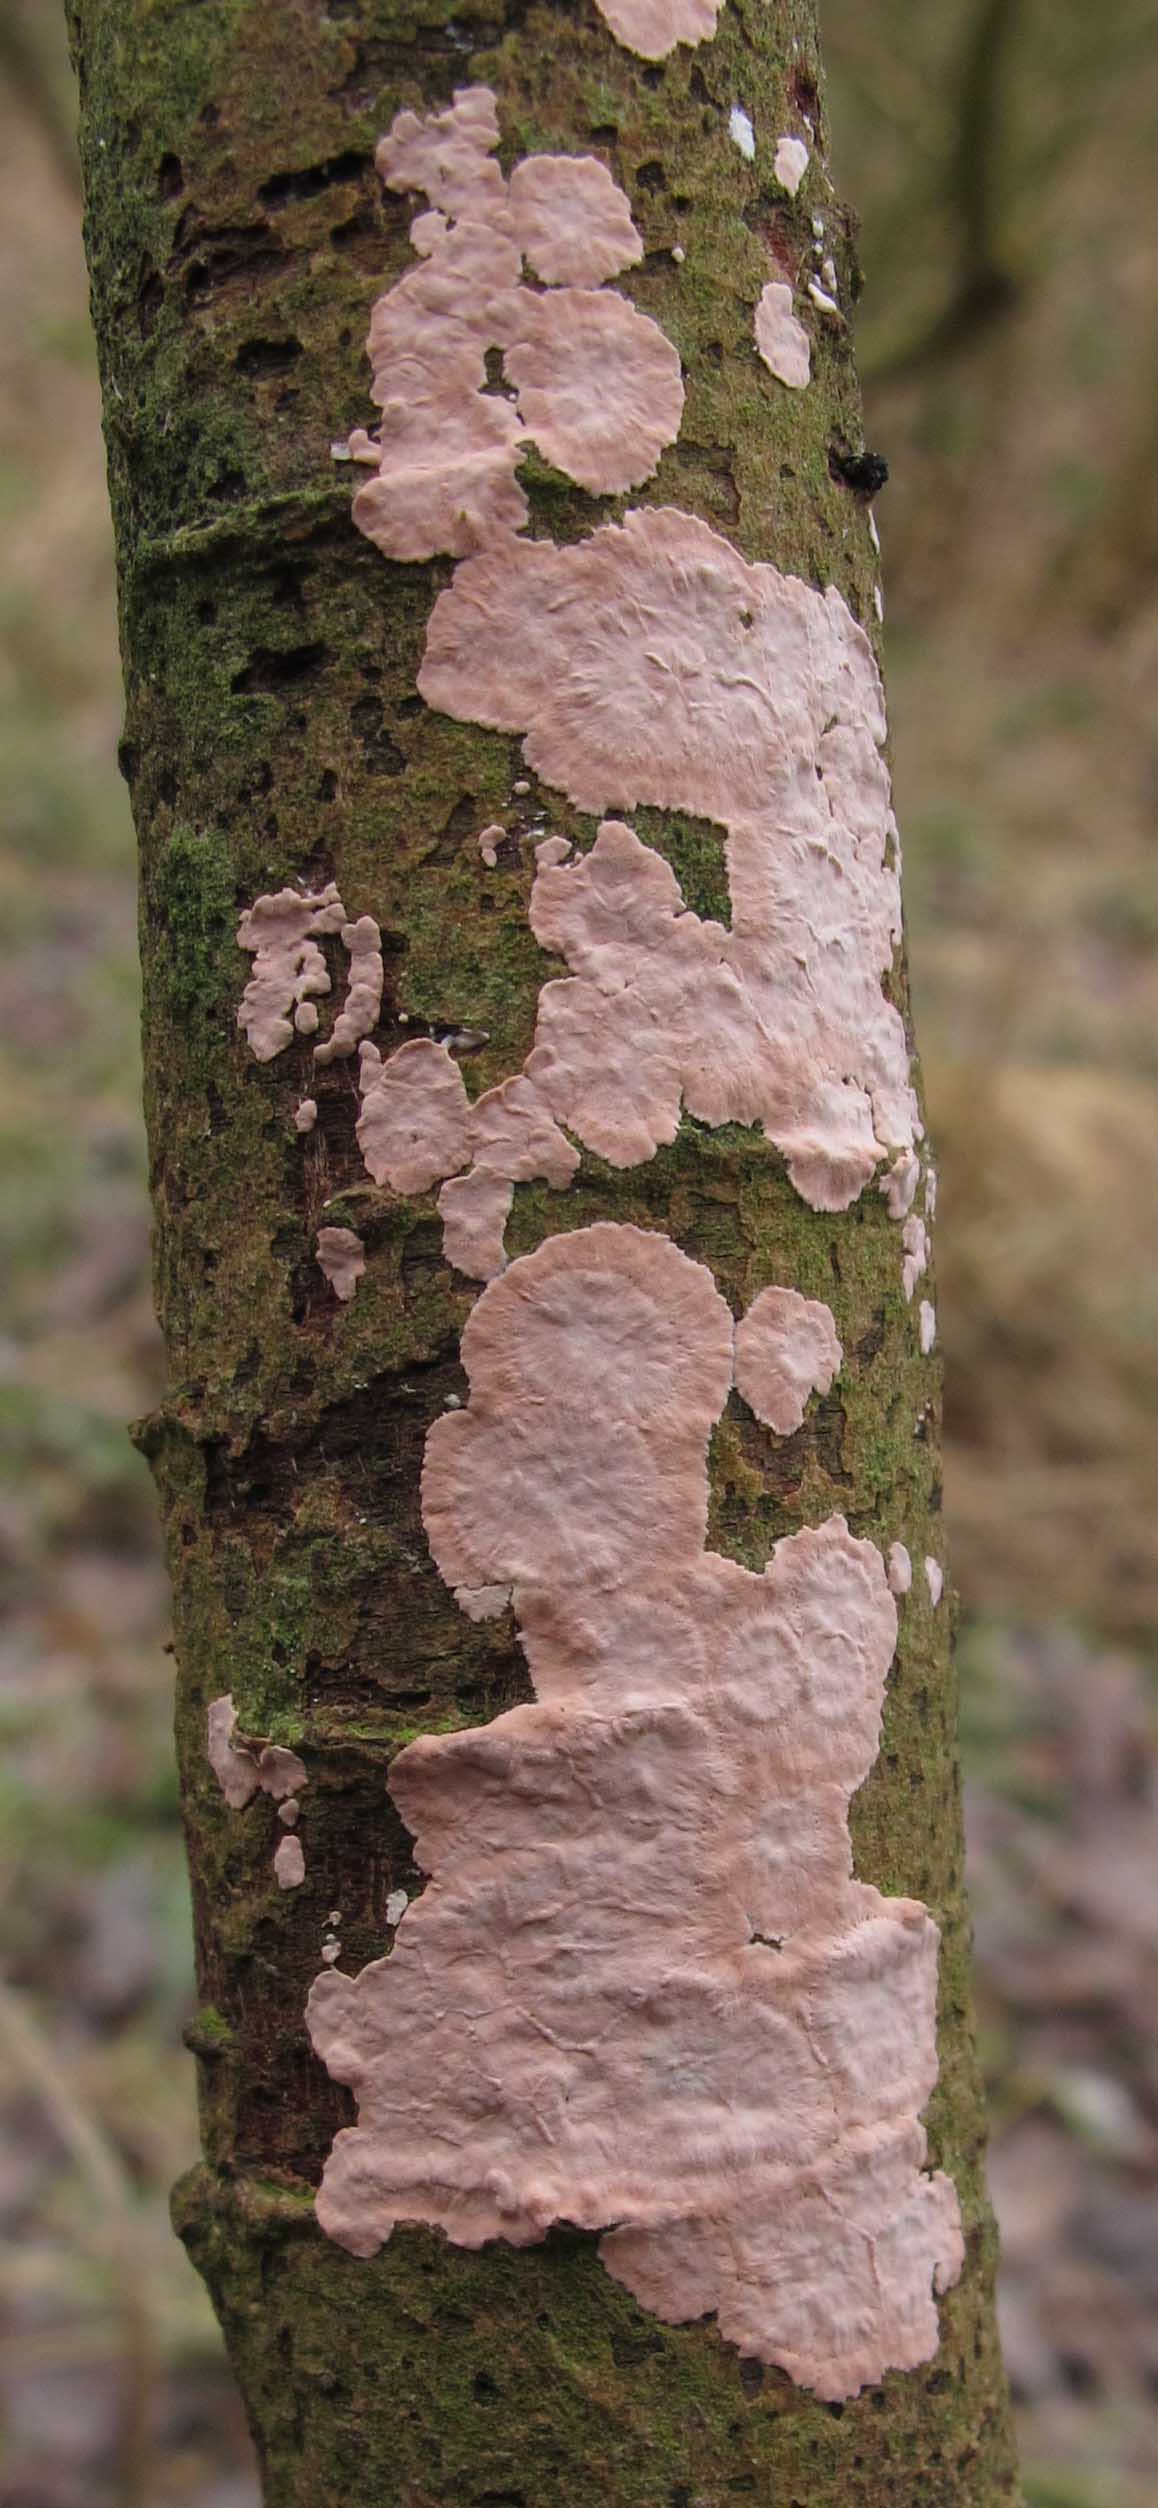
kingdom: Fungi
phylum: Basidiomycota
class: Agaricomycetes
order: Corticiales
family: Corticiaceae
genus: Corticium
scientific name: Corticium roseum
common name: rosa barkskind
